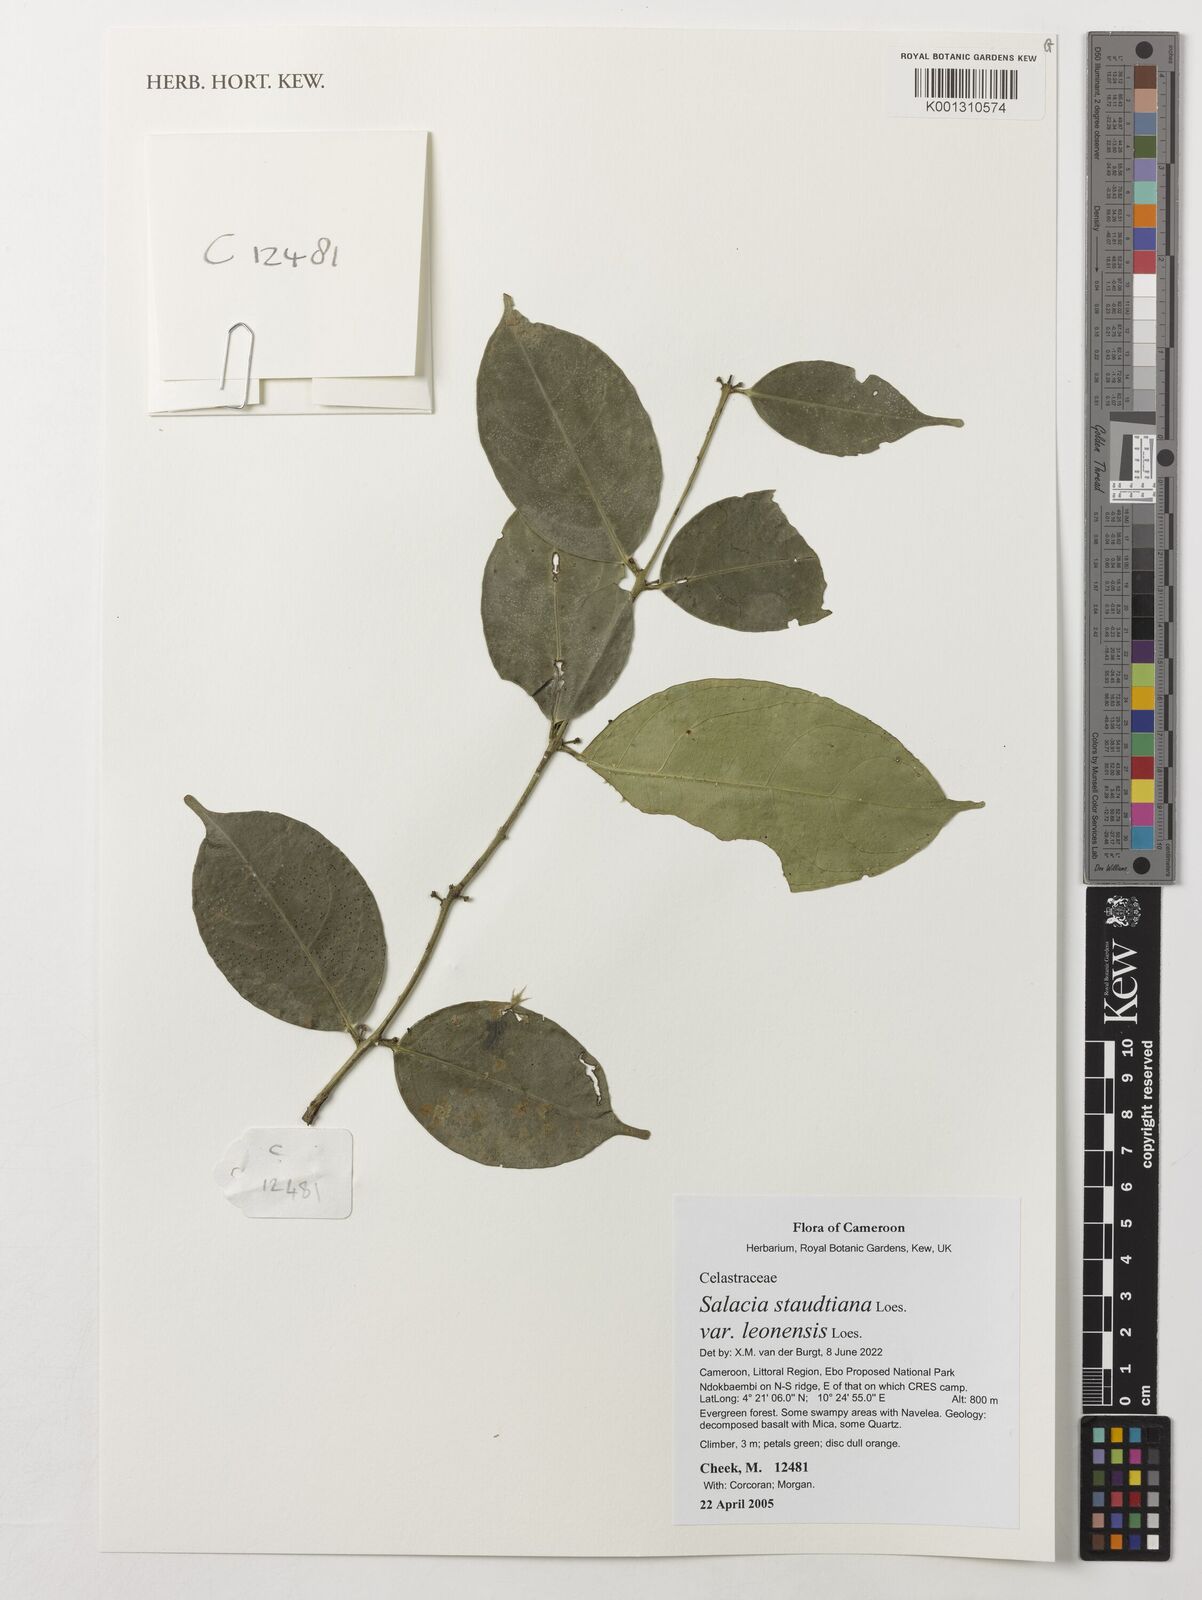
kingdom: Plantae
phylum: Tracheophyta
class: Magnoliopsida
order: Celastrales
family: Celastraceae
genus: Salacia
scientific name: Salacia staudtiana
